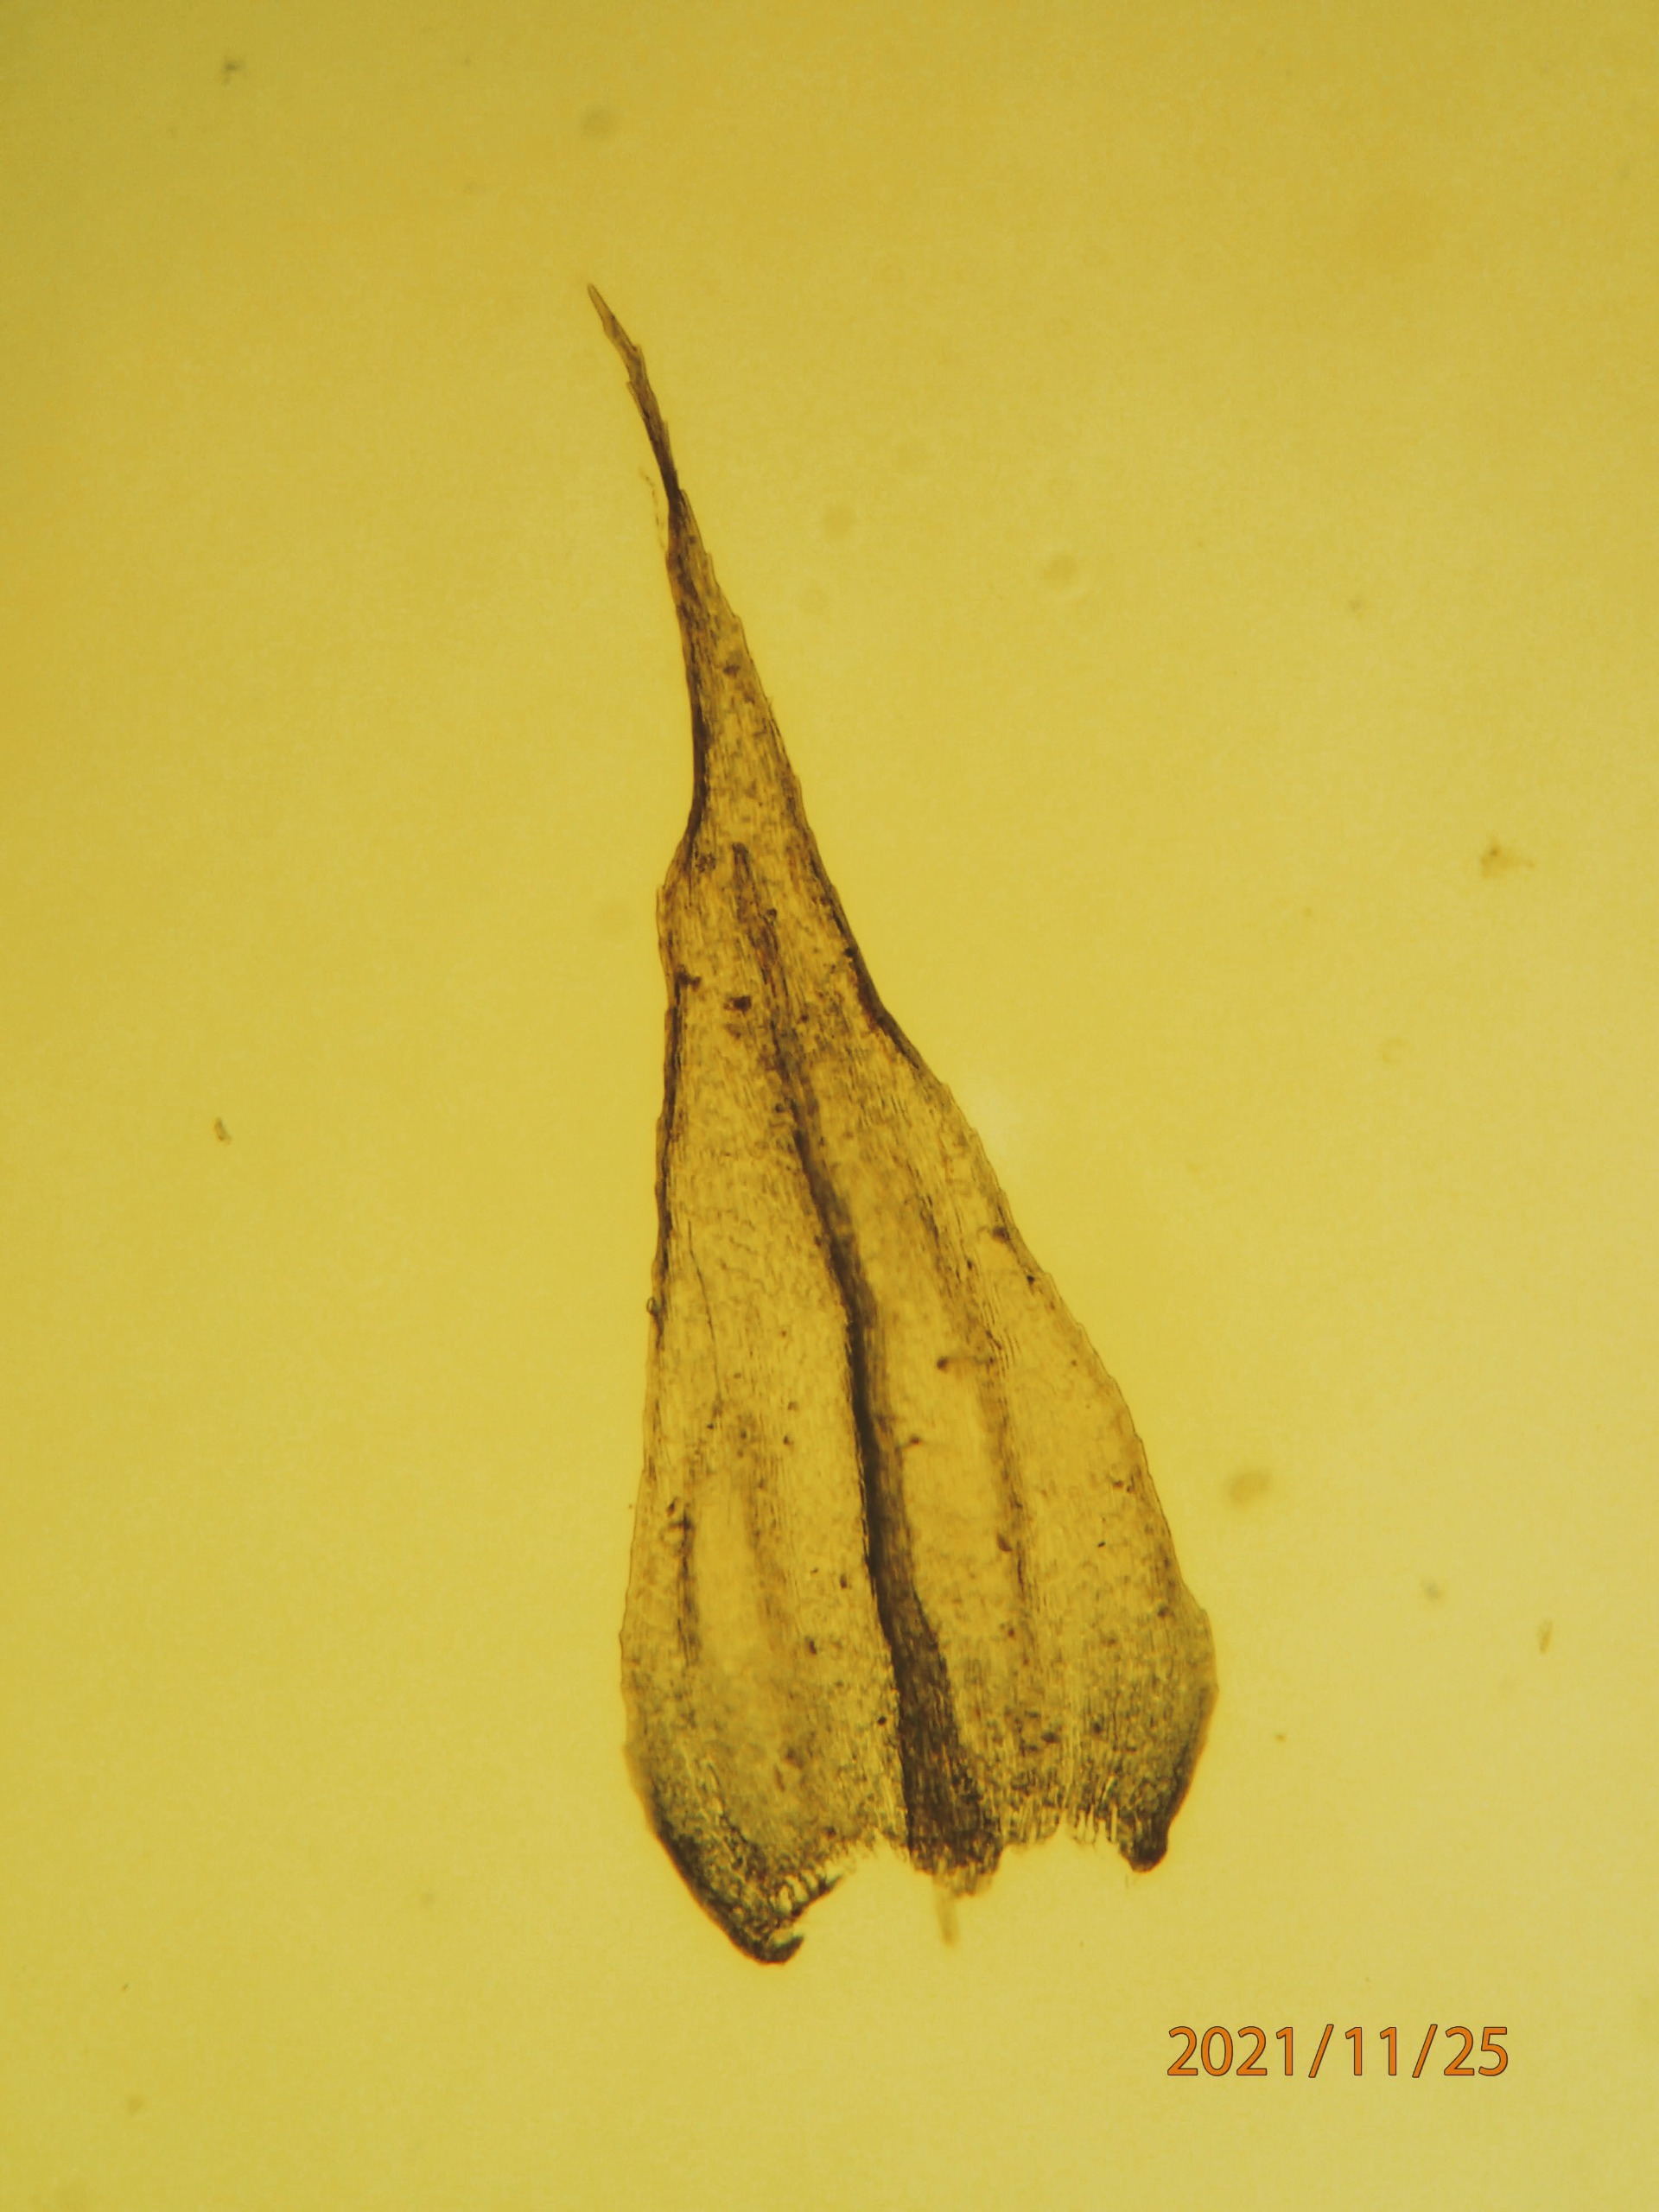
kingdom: Plantae
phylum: Bryophyta
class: Bryopsida
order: Hypnales
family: Brachytheciaceae
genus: Brachytheciastrum
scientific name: Brachytheciastrum velutinum
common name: Fløjls-kortkapsel
